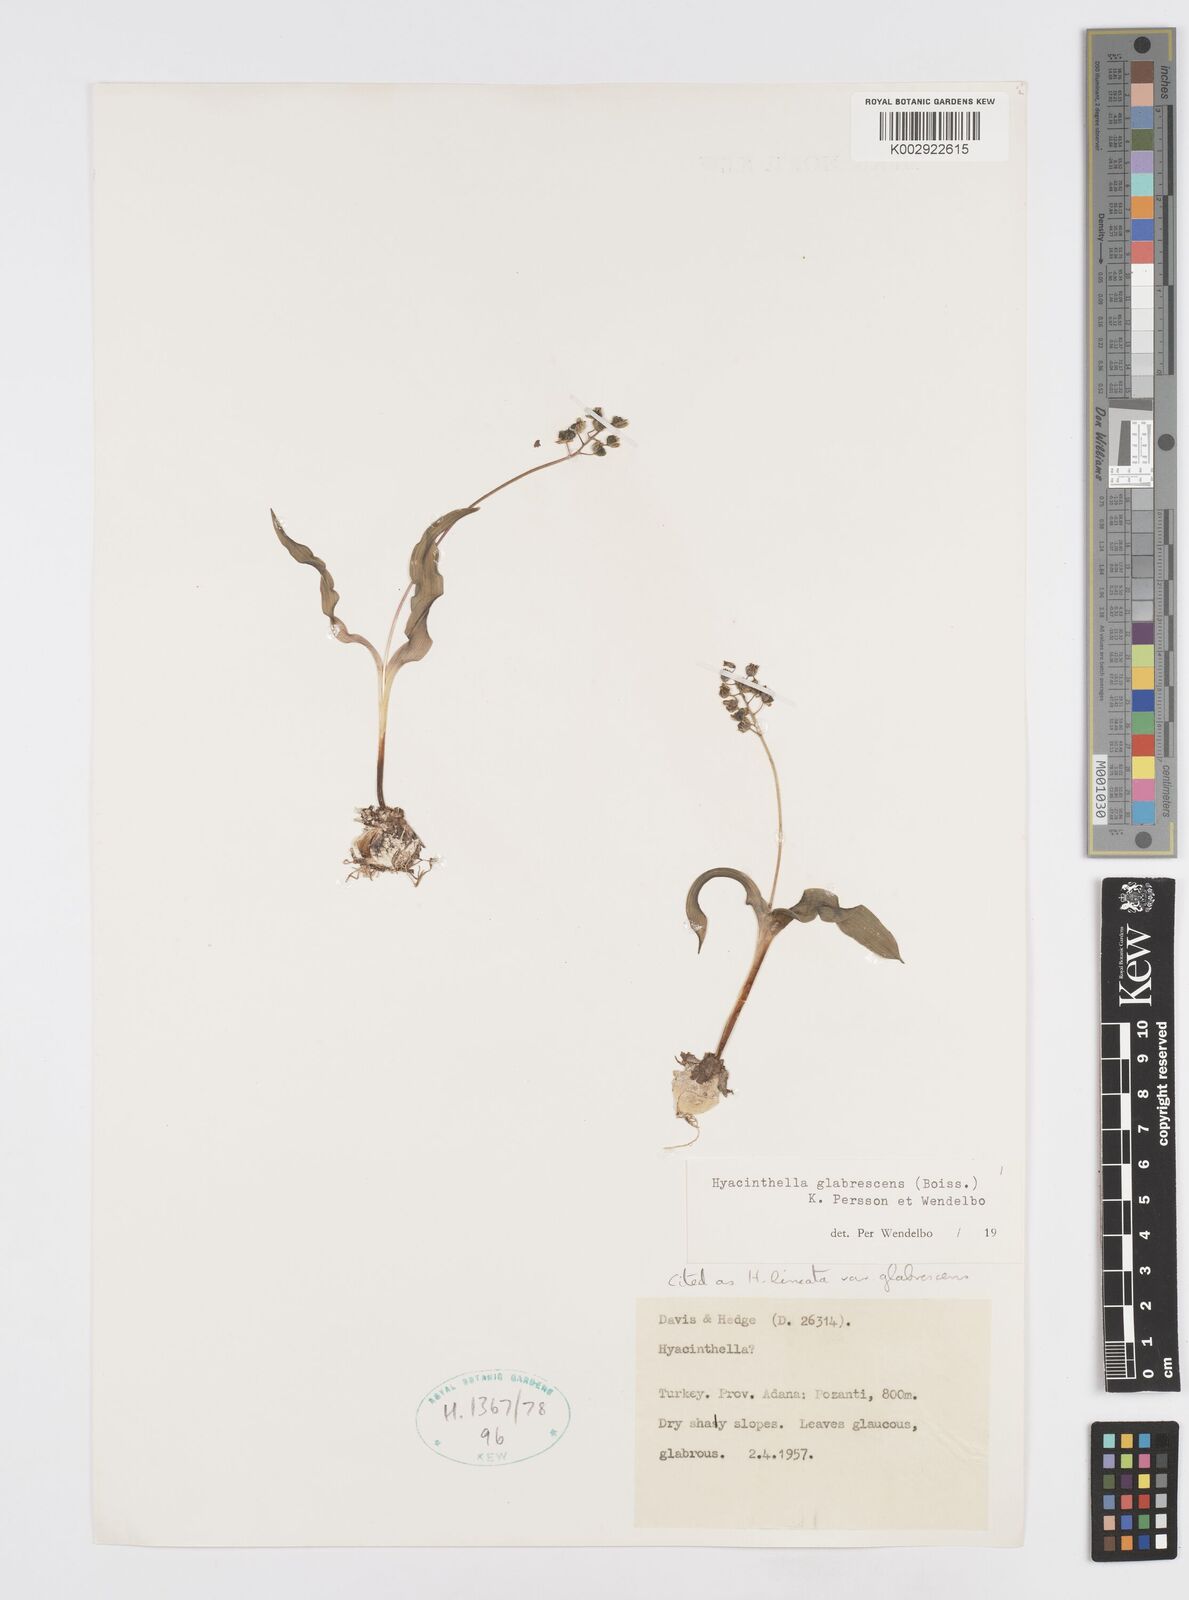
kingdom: Plantae
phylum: Tracheophyta
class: Liliopsida
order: Asparagales
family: Asparagaceae
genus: Hyacinthella
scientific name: Hyacinthella glabrescens
